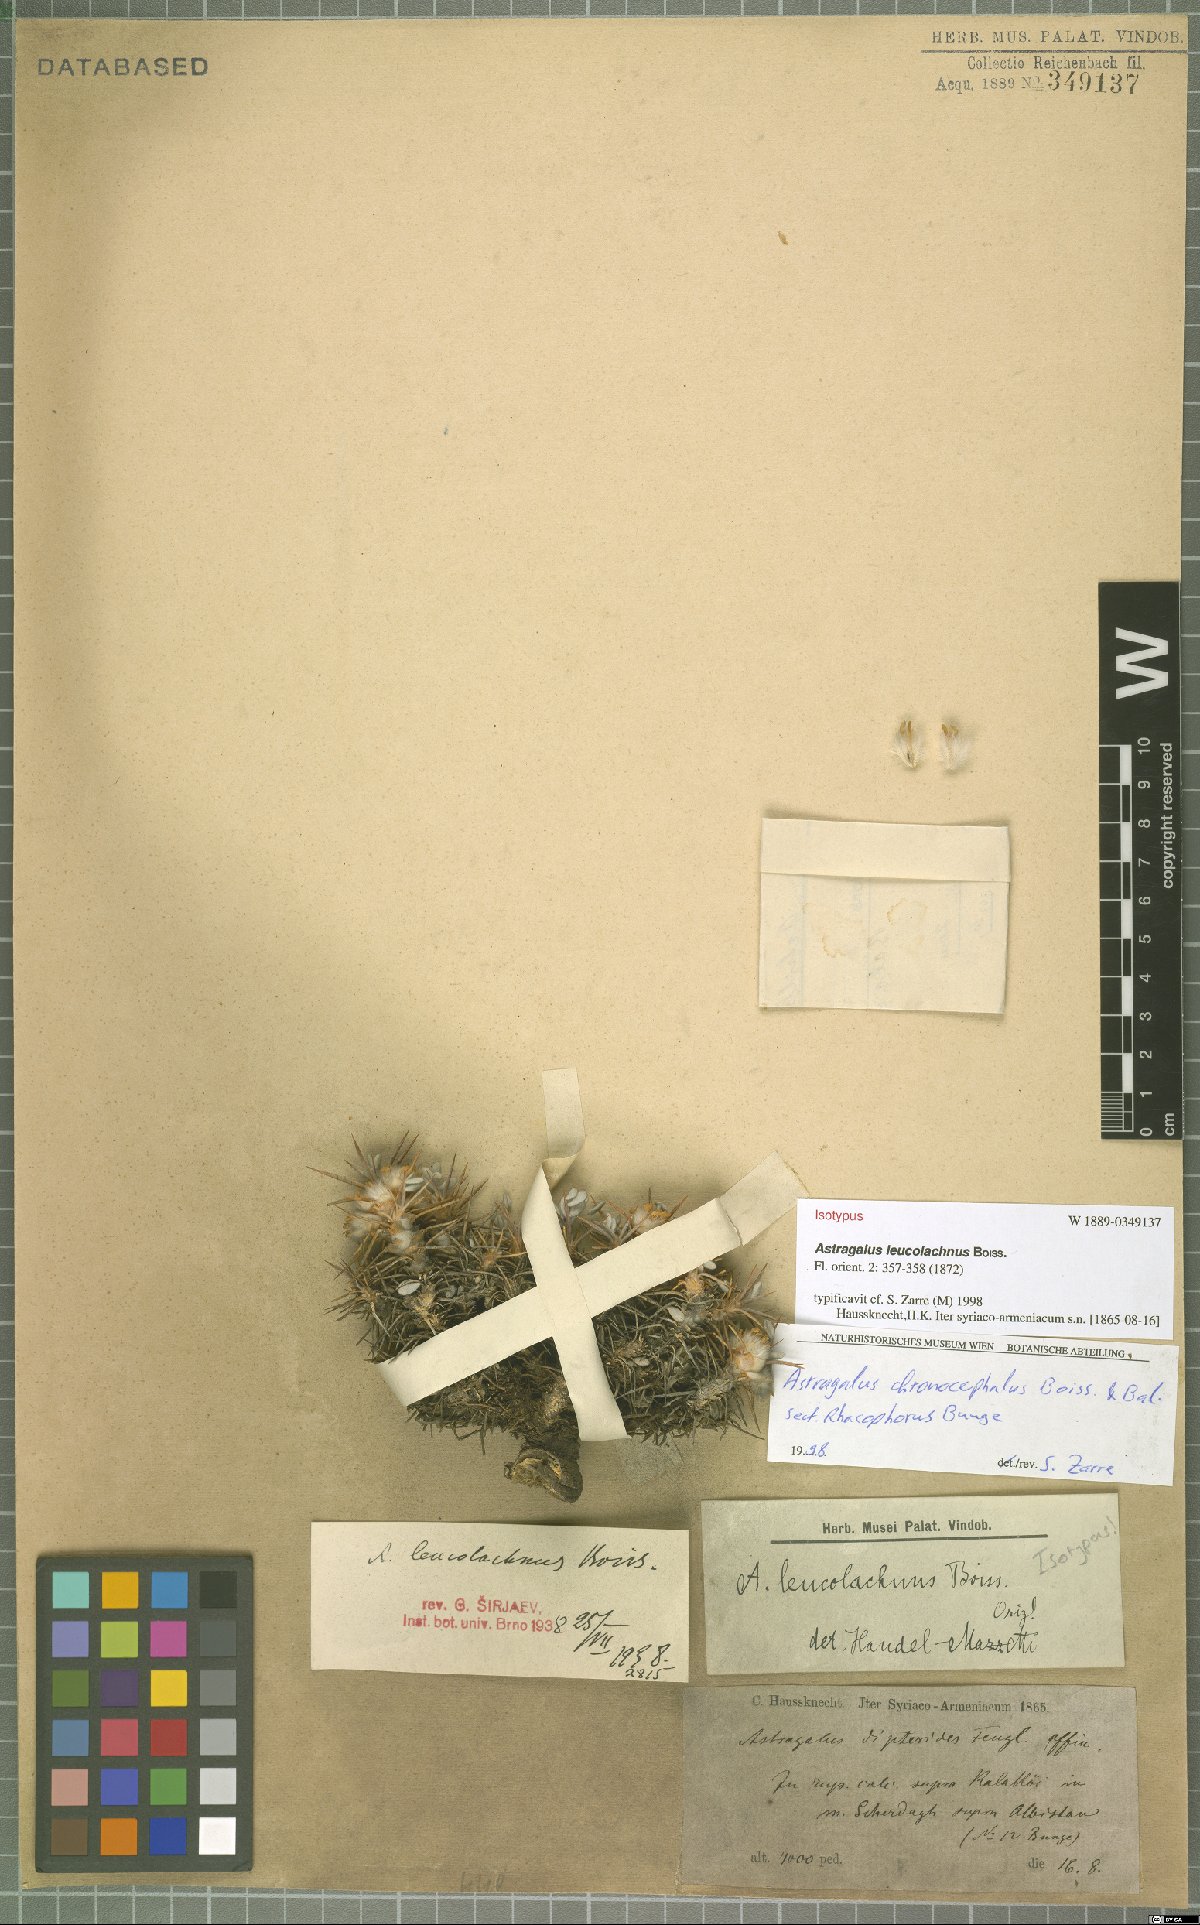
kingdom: Plantae
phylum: Tracheophyta
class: Magnoliopsida
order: Fabales
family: Fabaceae
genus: Astragalus
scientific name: Astragalus leucolachnus
